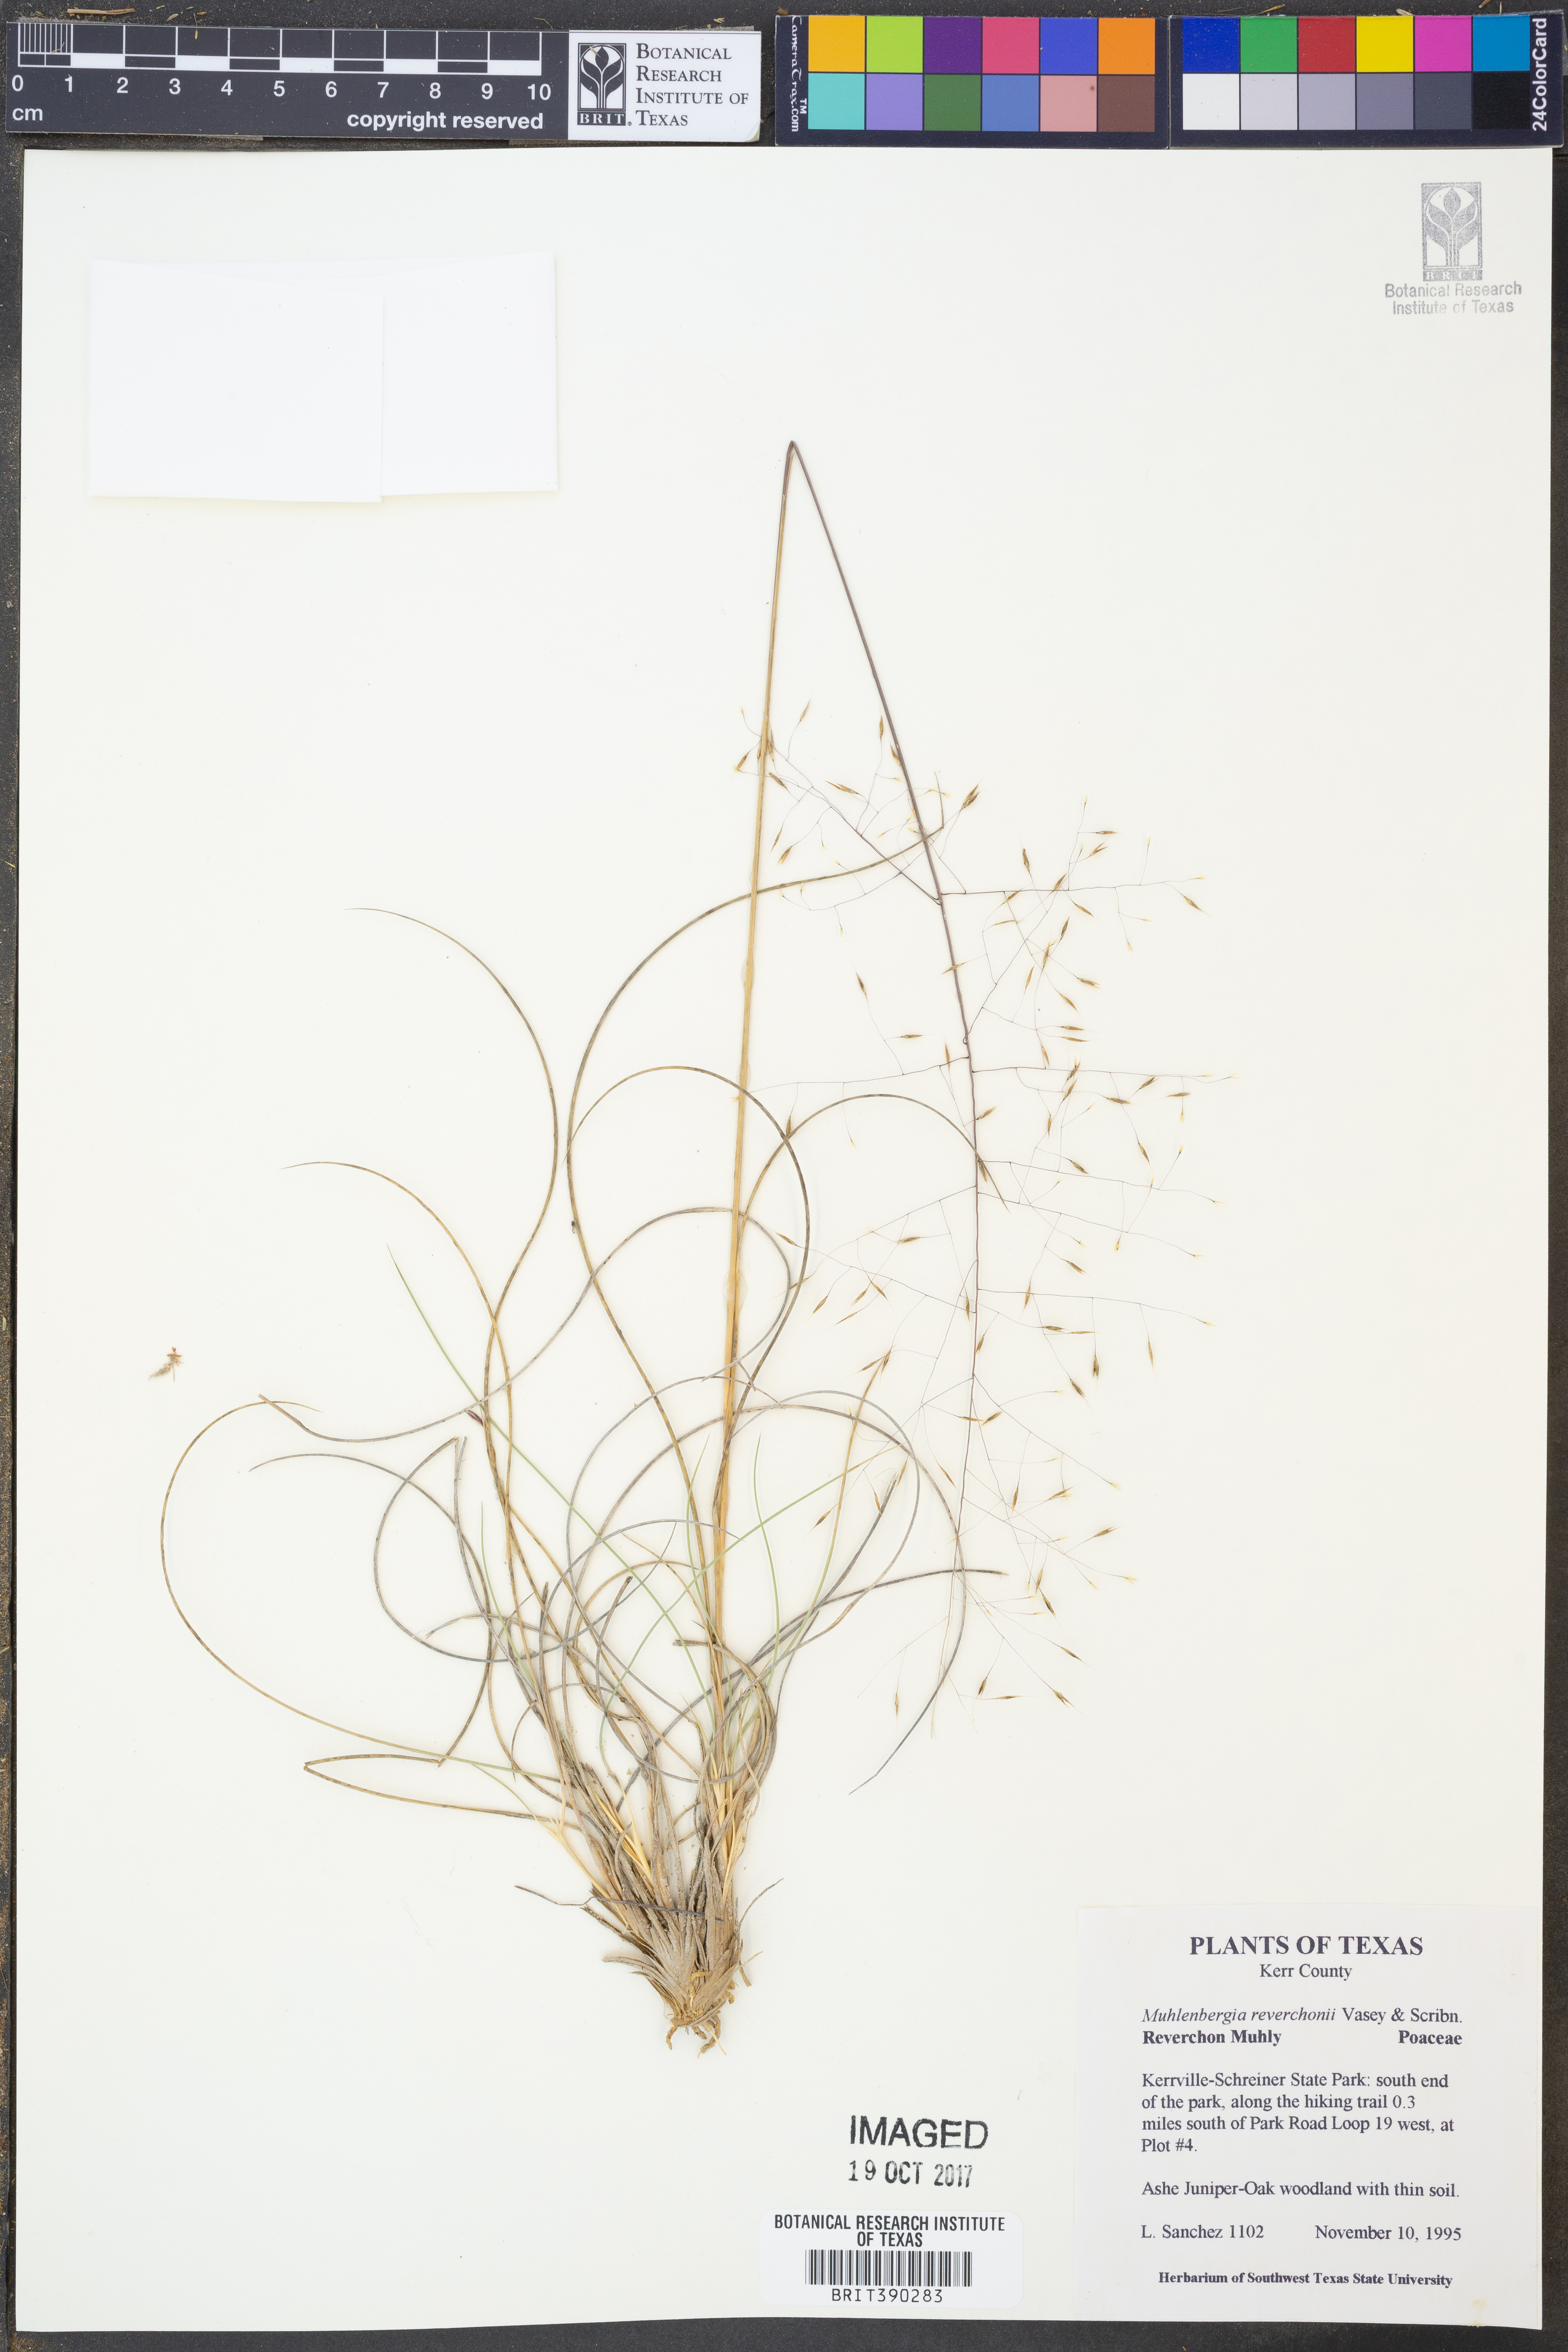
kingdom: Plantae
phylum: Tracheophyta
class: Liliopsida
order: Poales
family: Poaceae
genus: Muhlenbergia
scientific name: Muhlenbergia reverchonii
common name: Seep muhly
